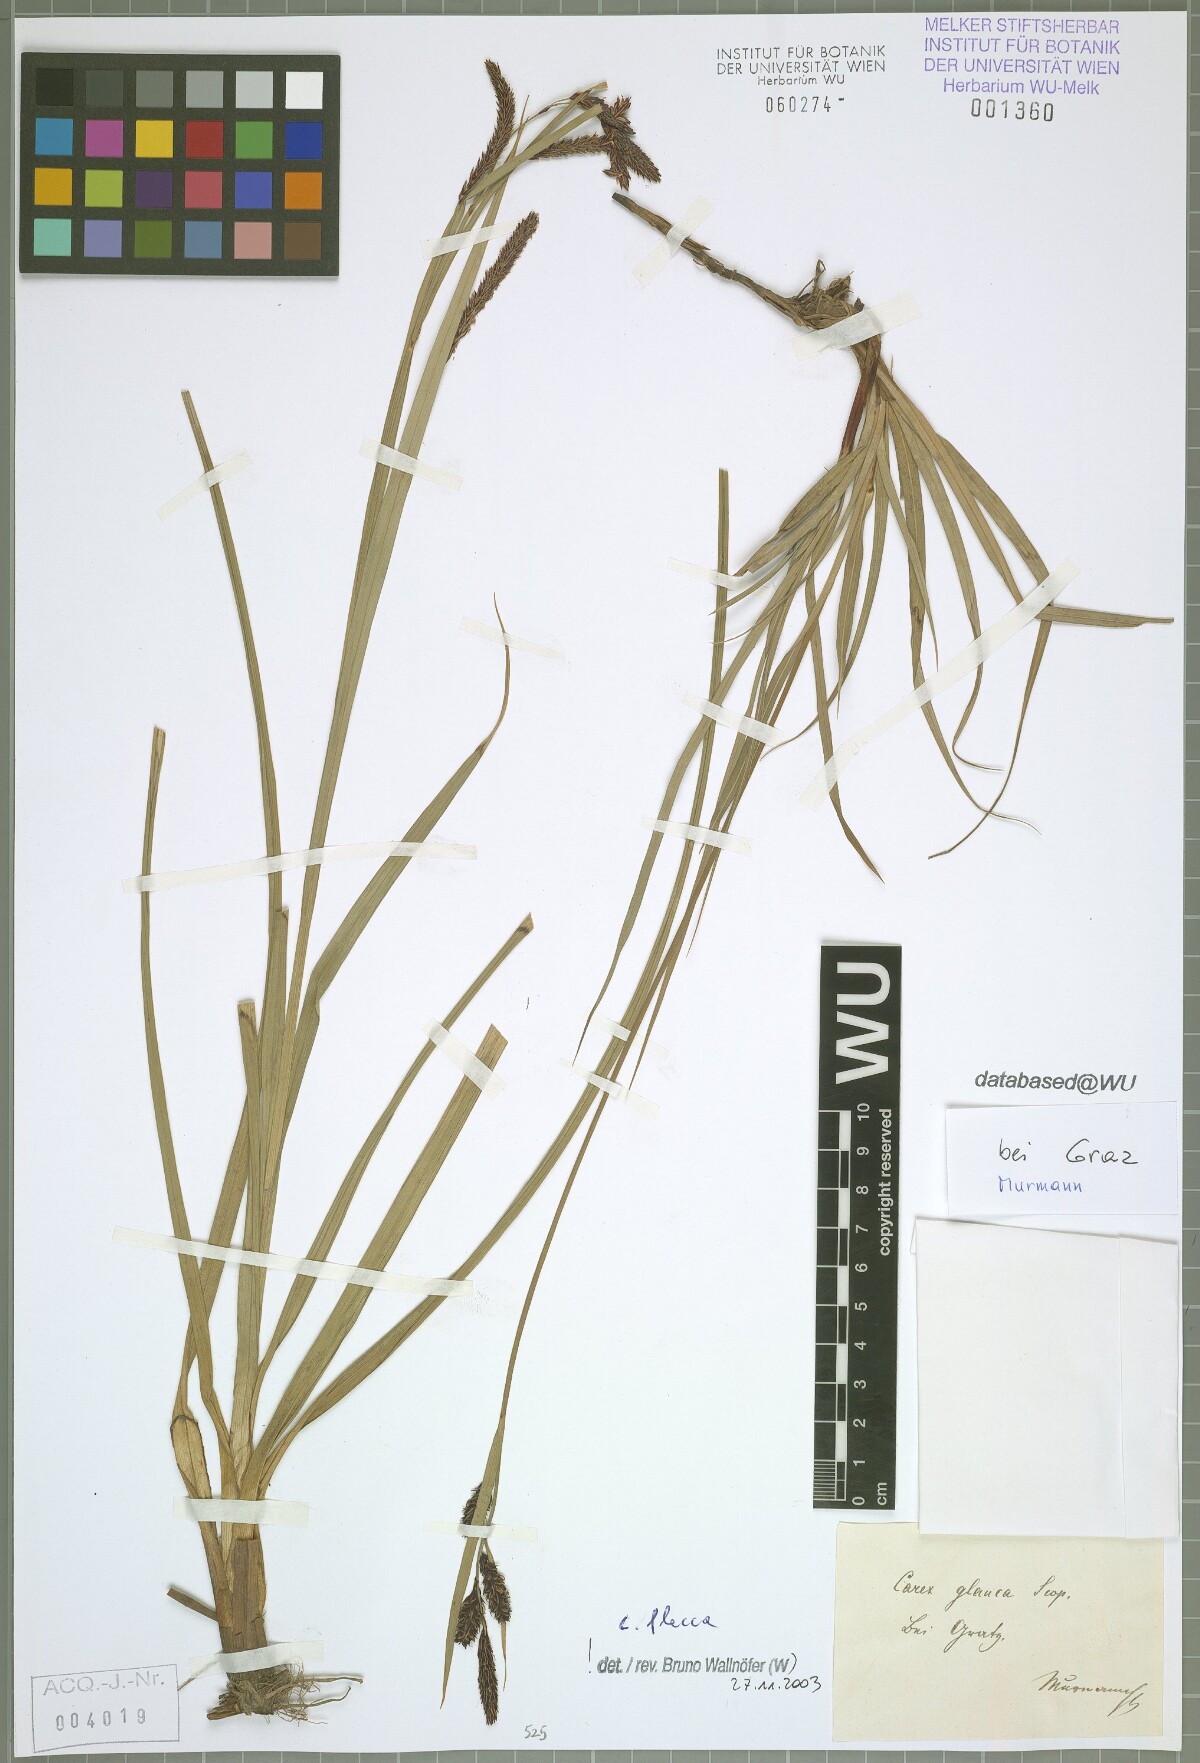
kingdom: Plantae
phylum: Tracheophyta
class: Liliopsida
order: Poales
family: Cyperaceae
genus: Carex
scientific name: Carex flacca
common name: Glaucous sedge
